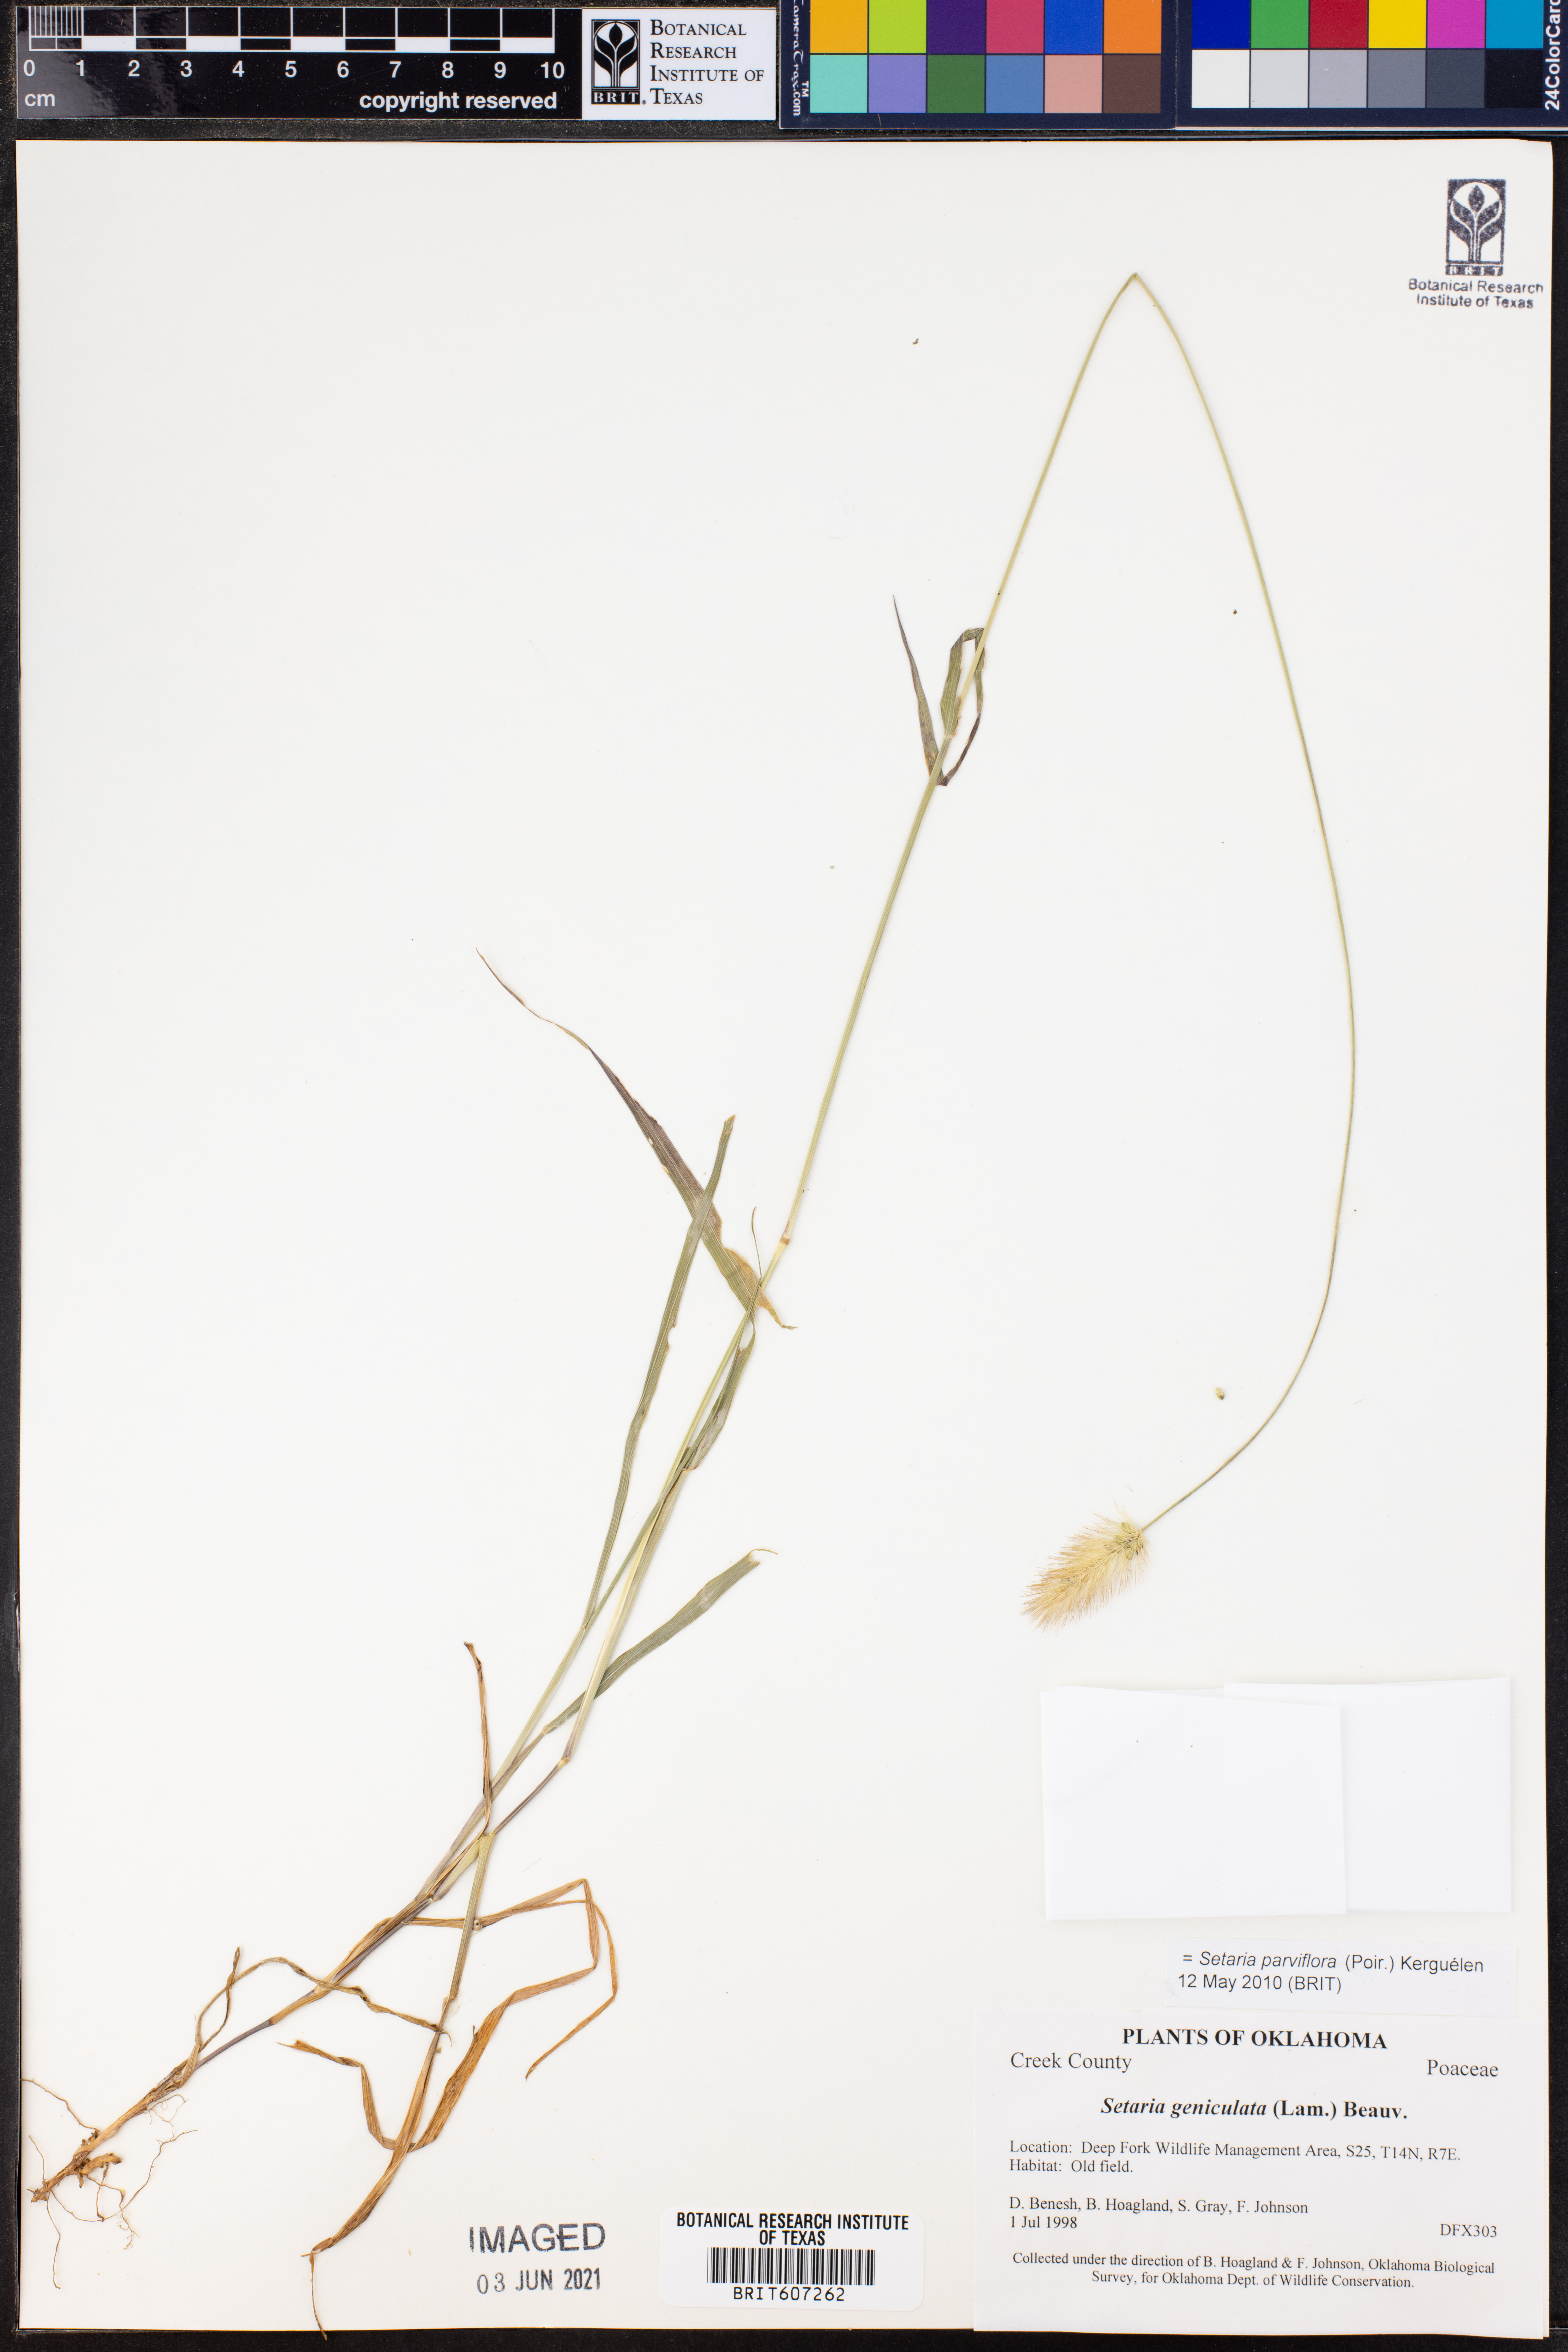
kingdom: Plantae
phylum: Tracheophyta
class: Liliopsida
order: Poales
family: Poaceae
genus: Setaria
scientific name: Setaria parviflora
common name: Knotroot bristle-grass
